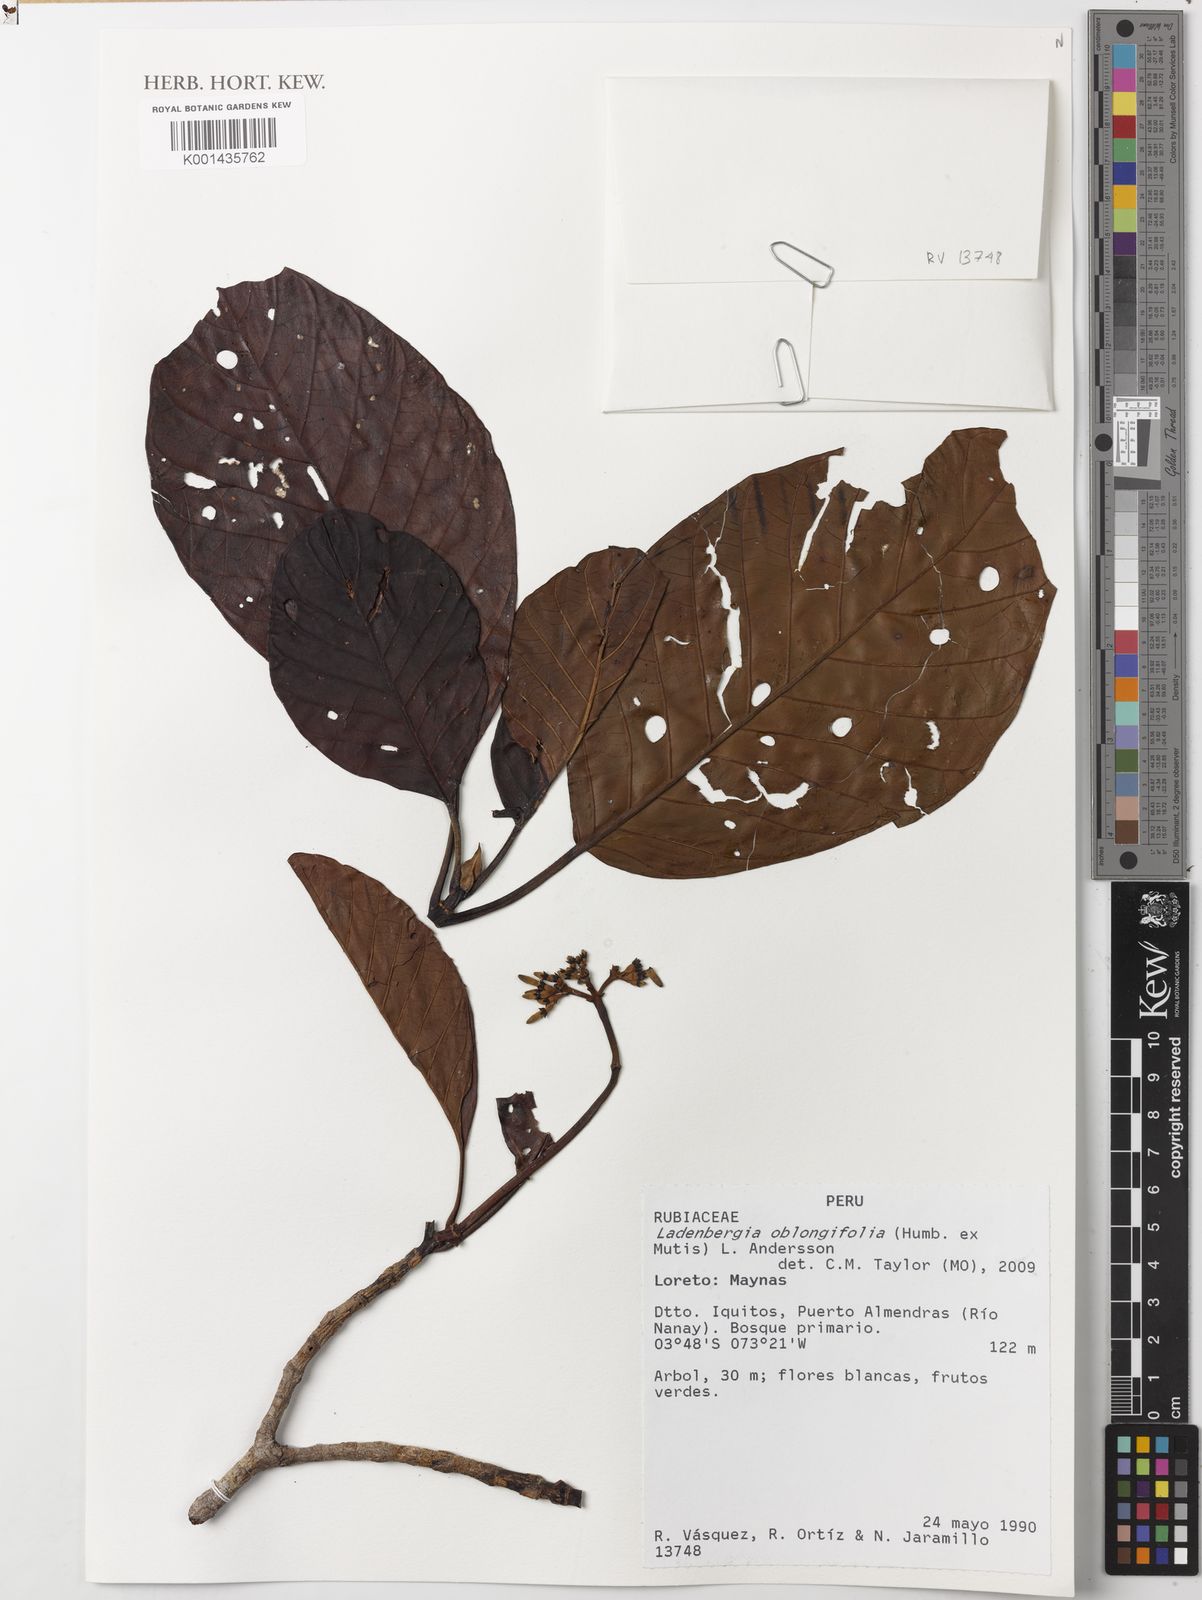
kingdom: Plantae
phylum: Tracheophyta
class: Magnoliopsida
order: Gentianales
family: Rubiaceae
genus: Ladenbergia
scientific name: Ladenbergia oblongifolia
